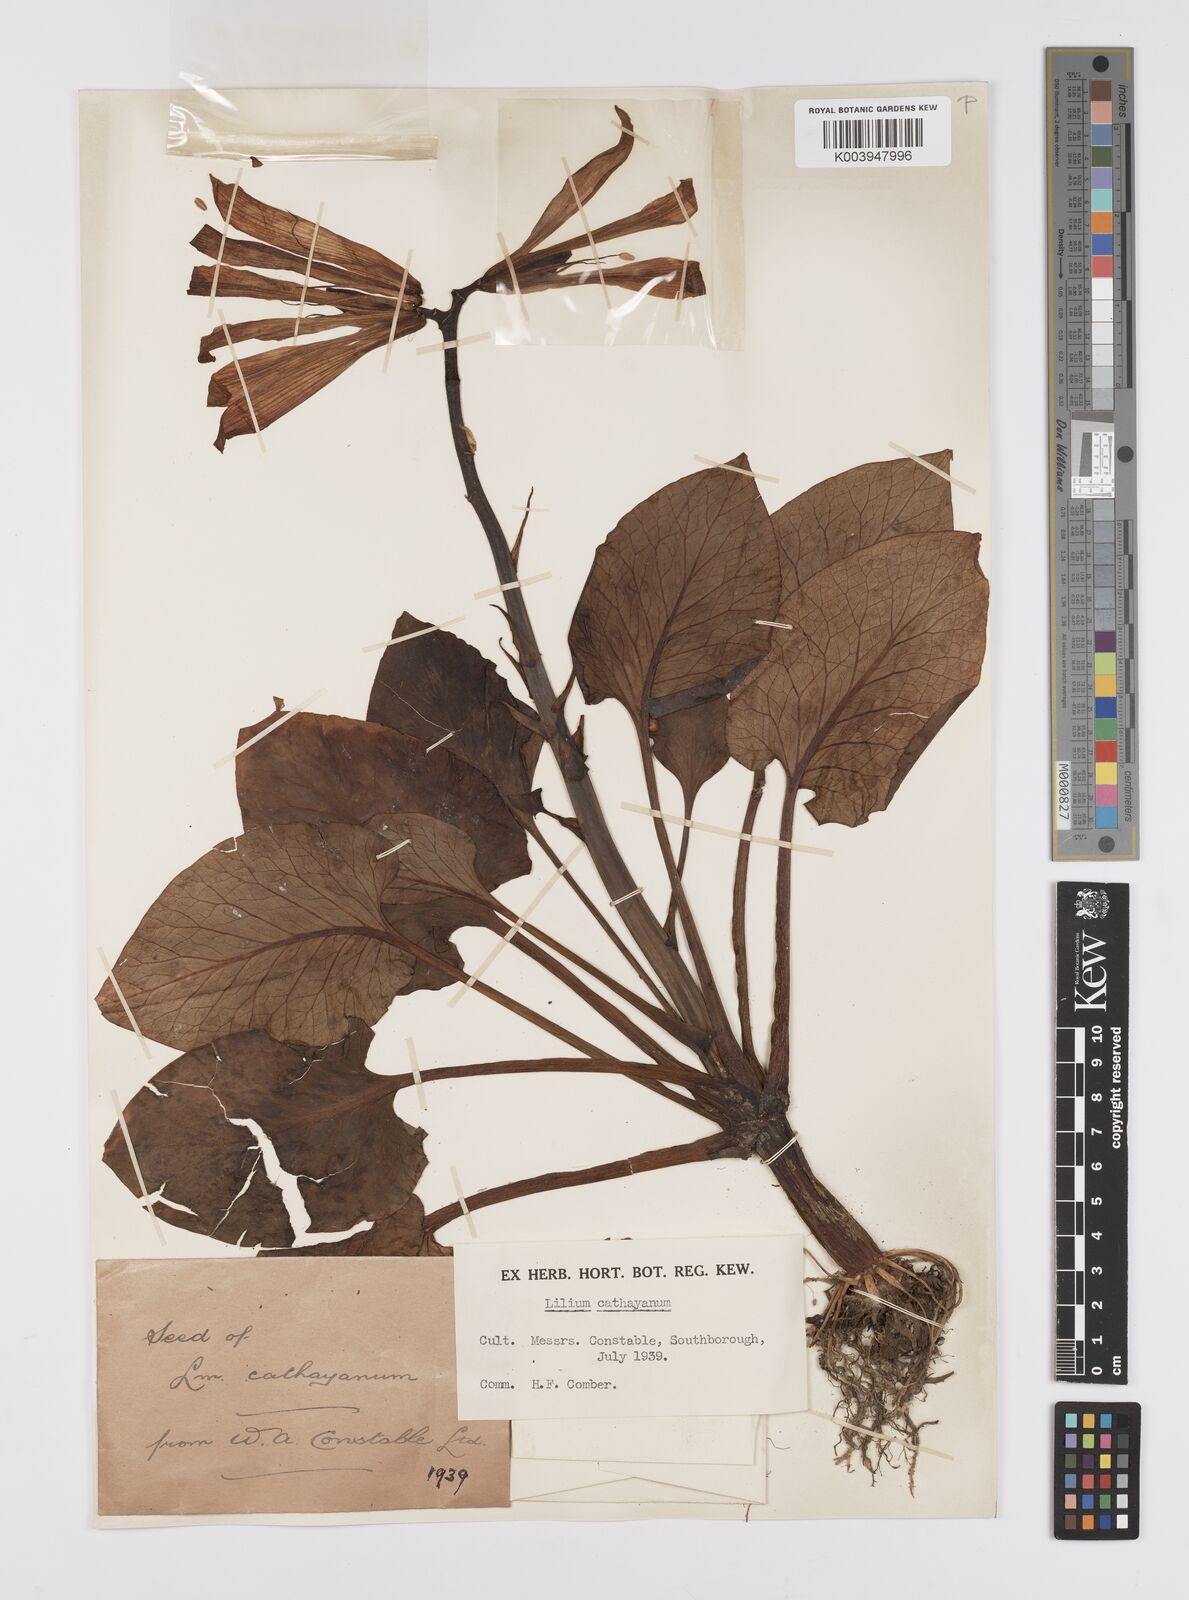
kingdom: Plantae
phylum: Tracheophyta
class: Liliopsida
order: Liliales
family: Liliaceae
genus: Cardiocrinum
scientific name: Cardiocrinum cathayanum
